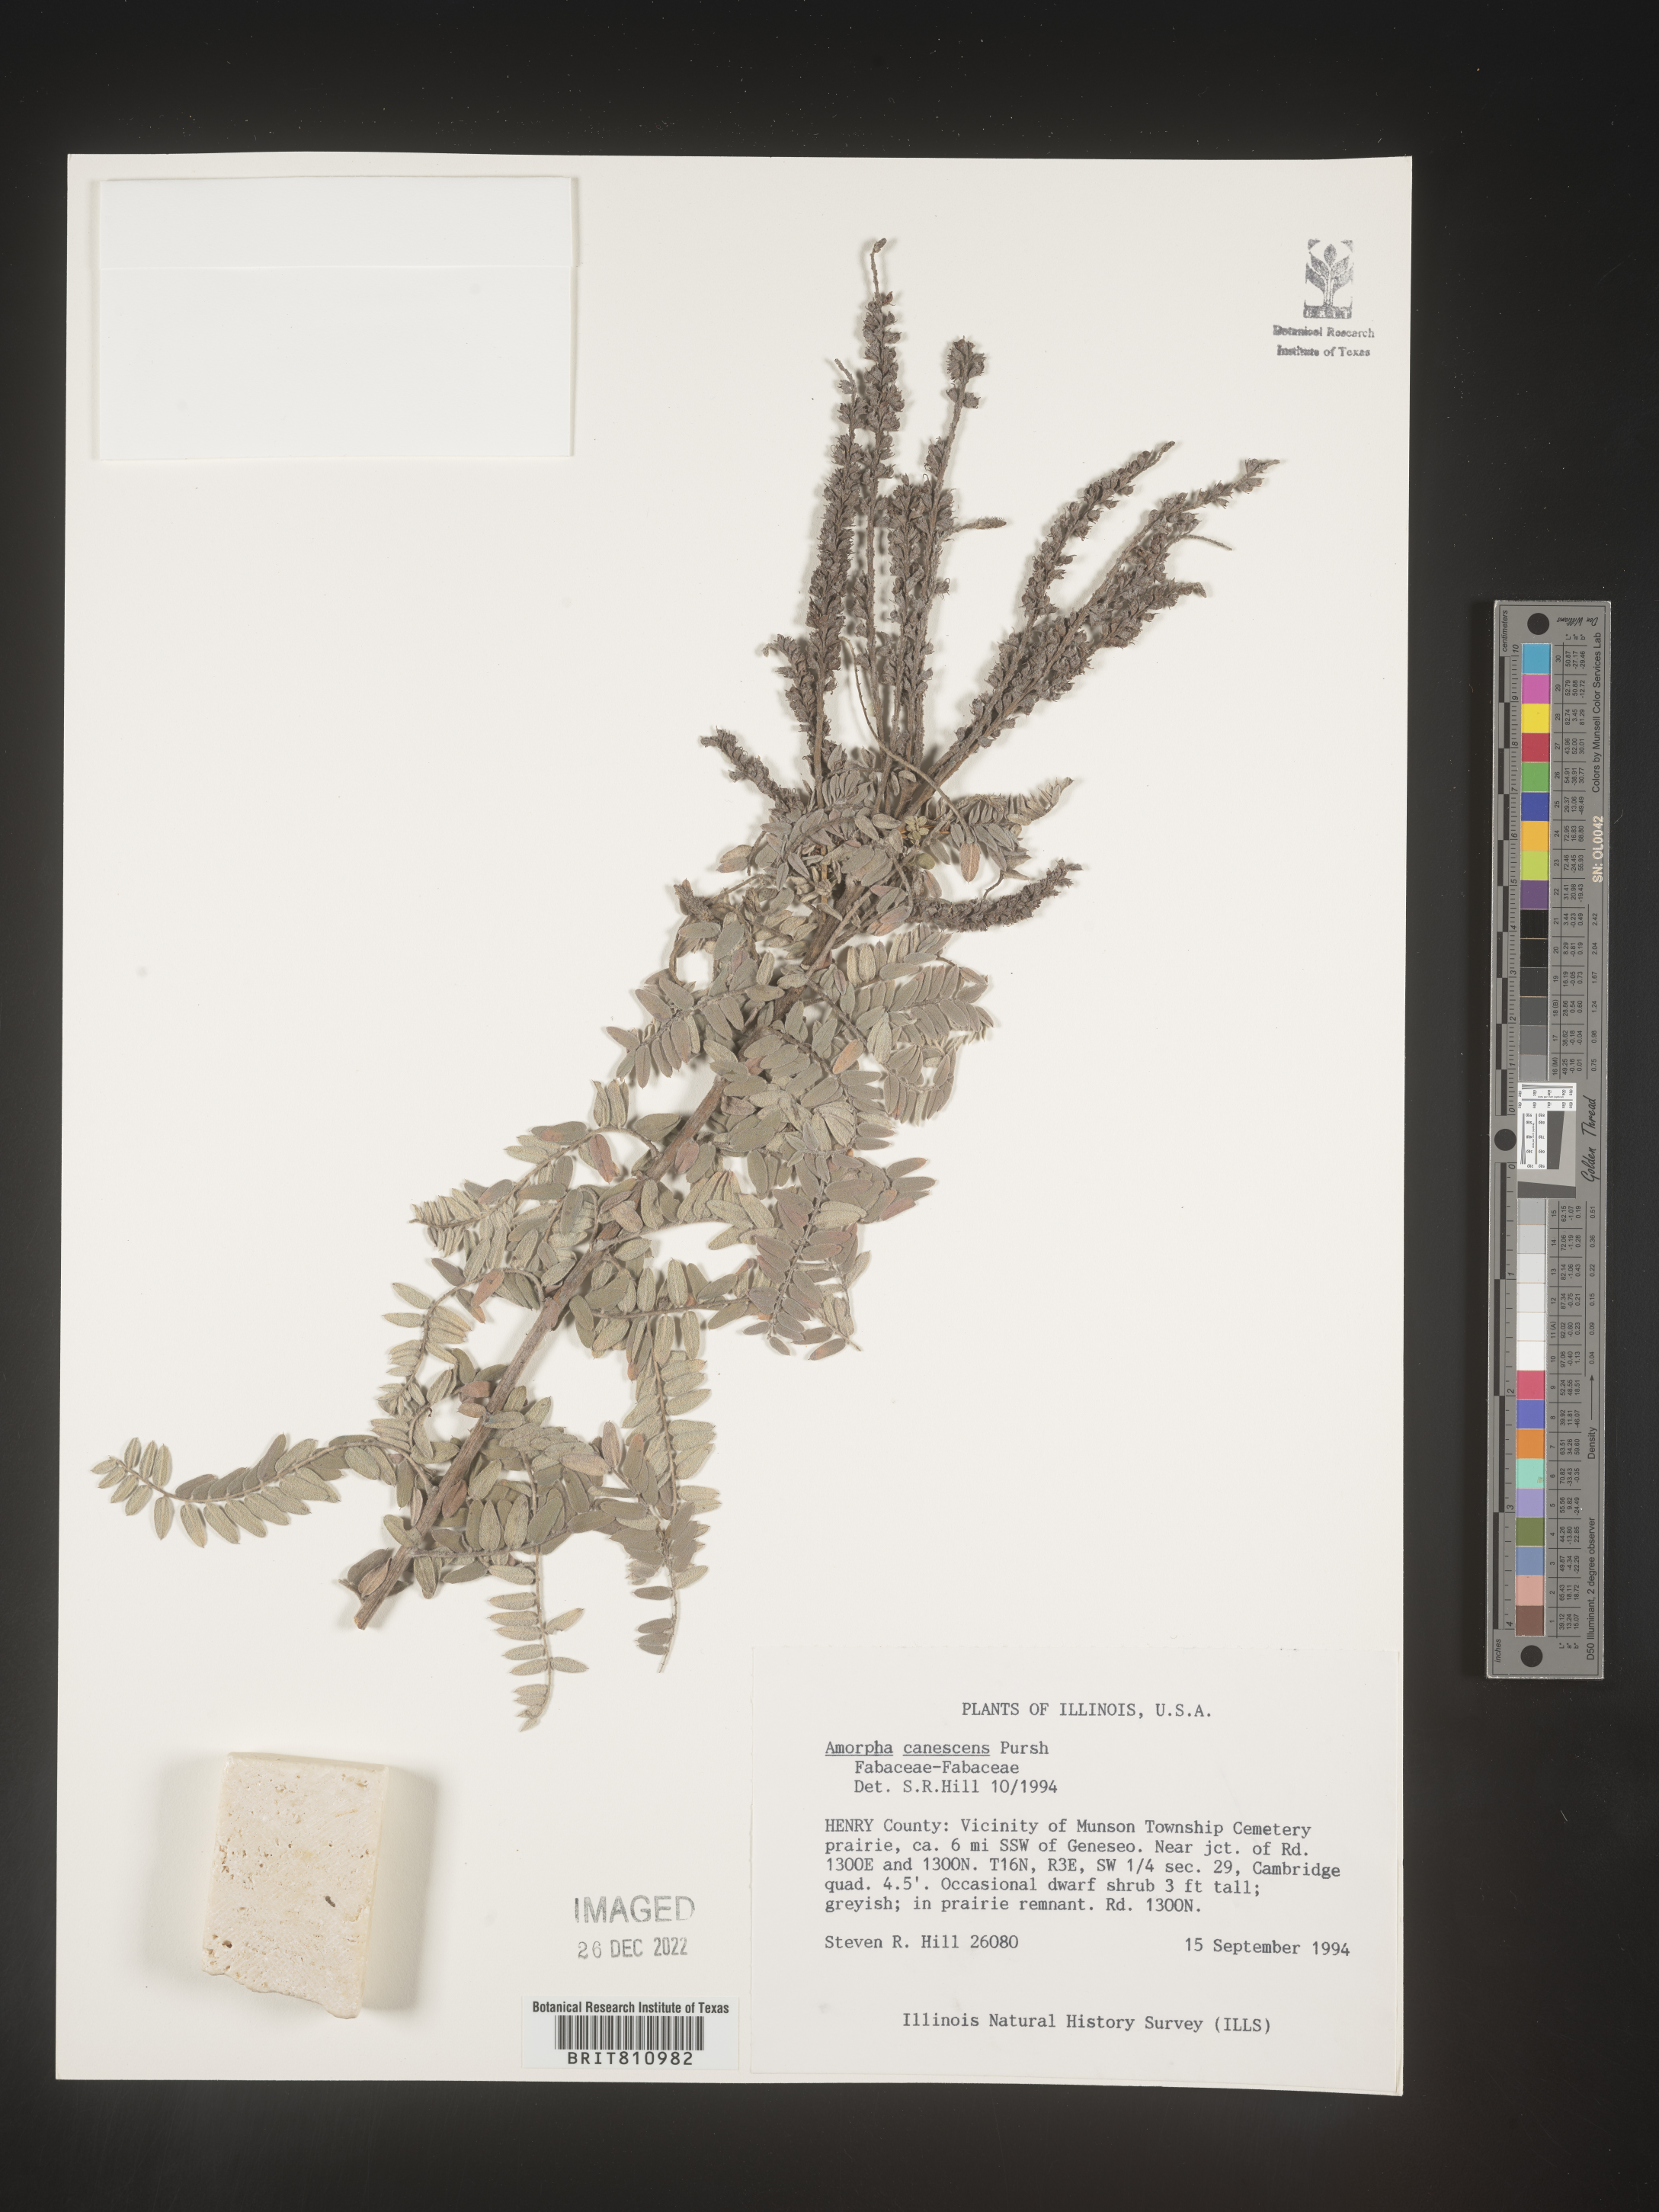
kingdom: Plantae
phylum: Tracheophyta
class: Magnoliopsida
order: Fabales
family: Fabaceae
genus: Amorpha
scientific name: Amorpha canescens
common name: Leadplant
